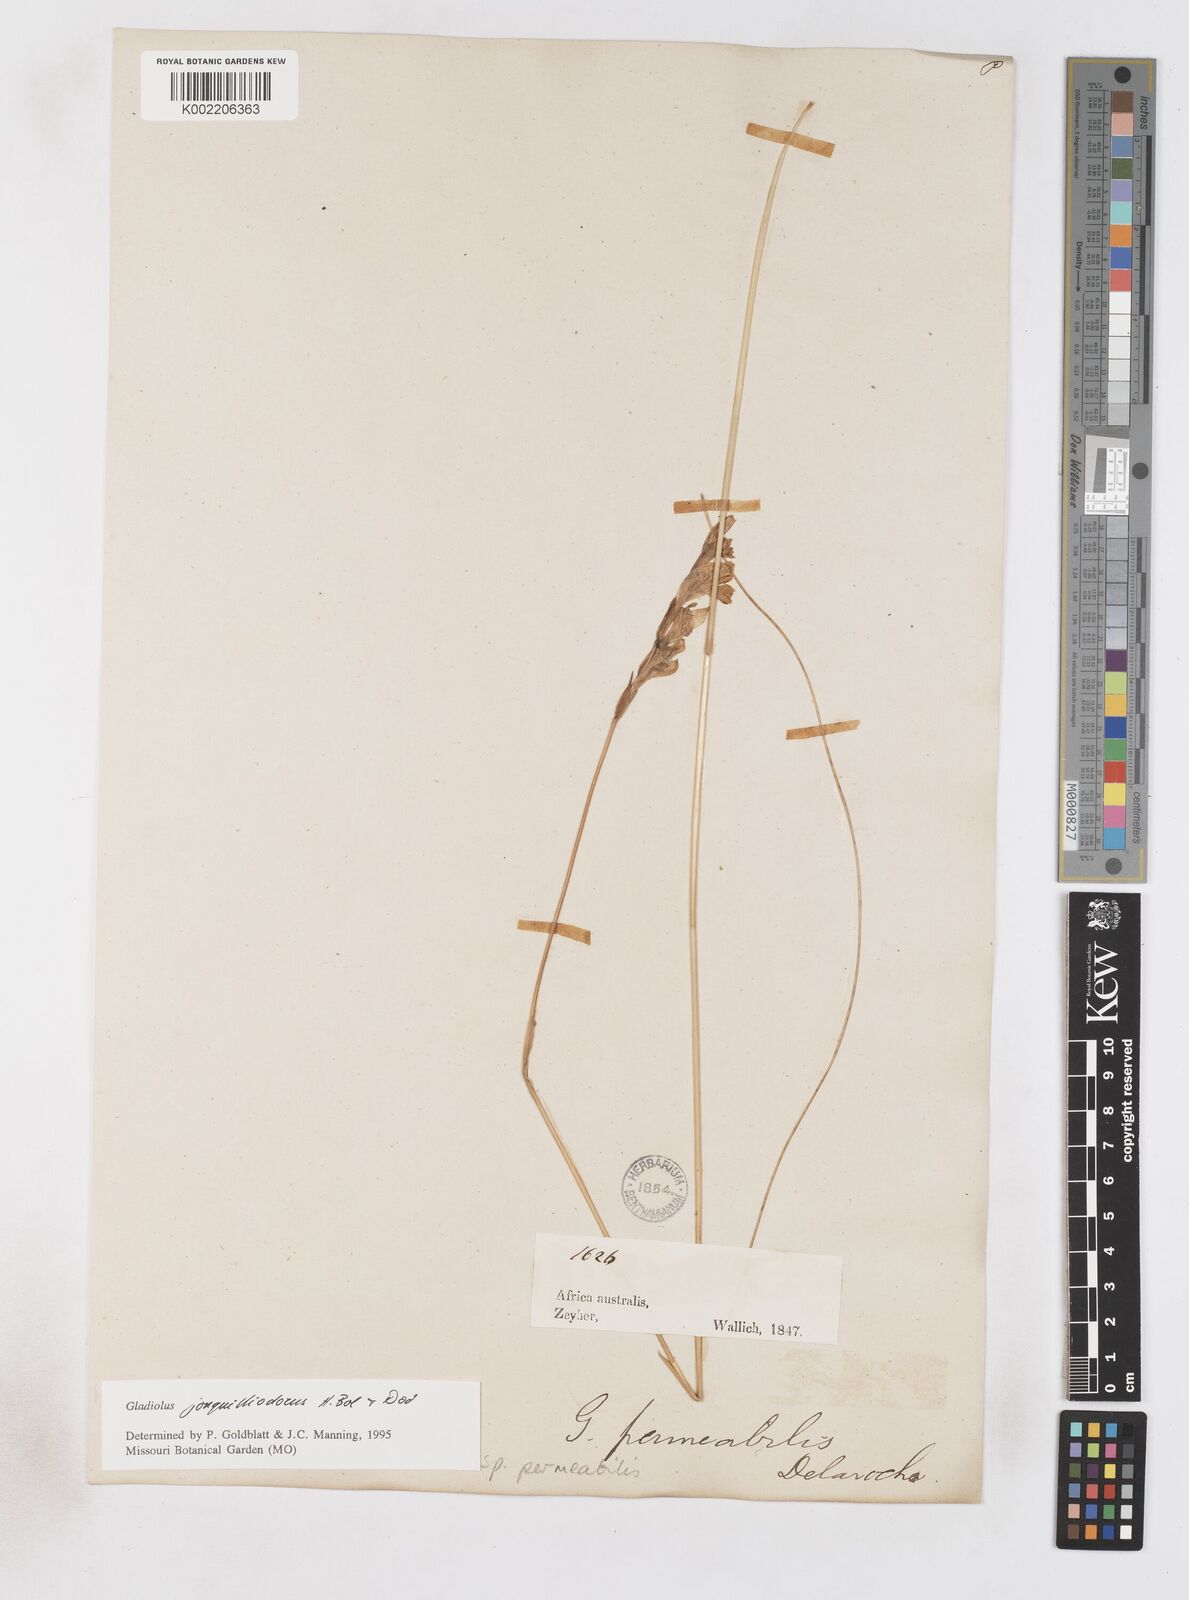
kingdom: Plantae
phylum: Tracheophyta
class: Liliopsida
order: Asparagales
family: Iridaceae
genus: Gladiolus
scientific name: Gladiolus jonquilodorus
